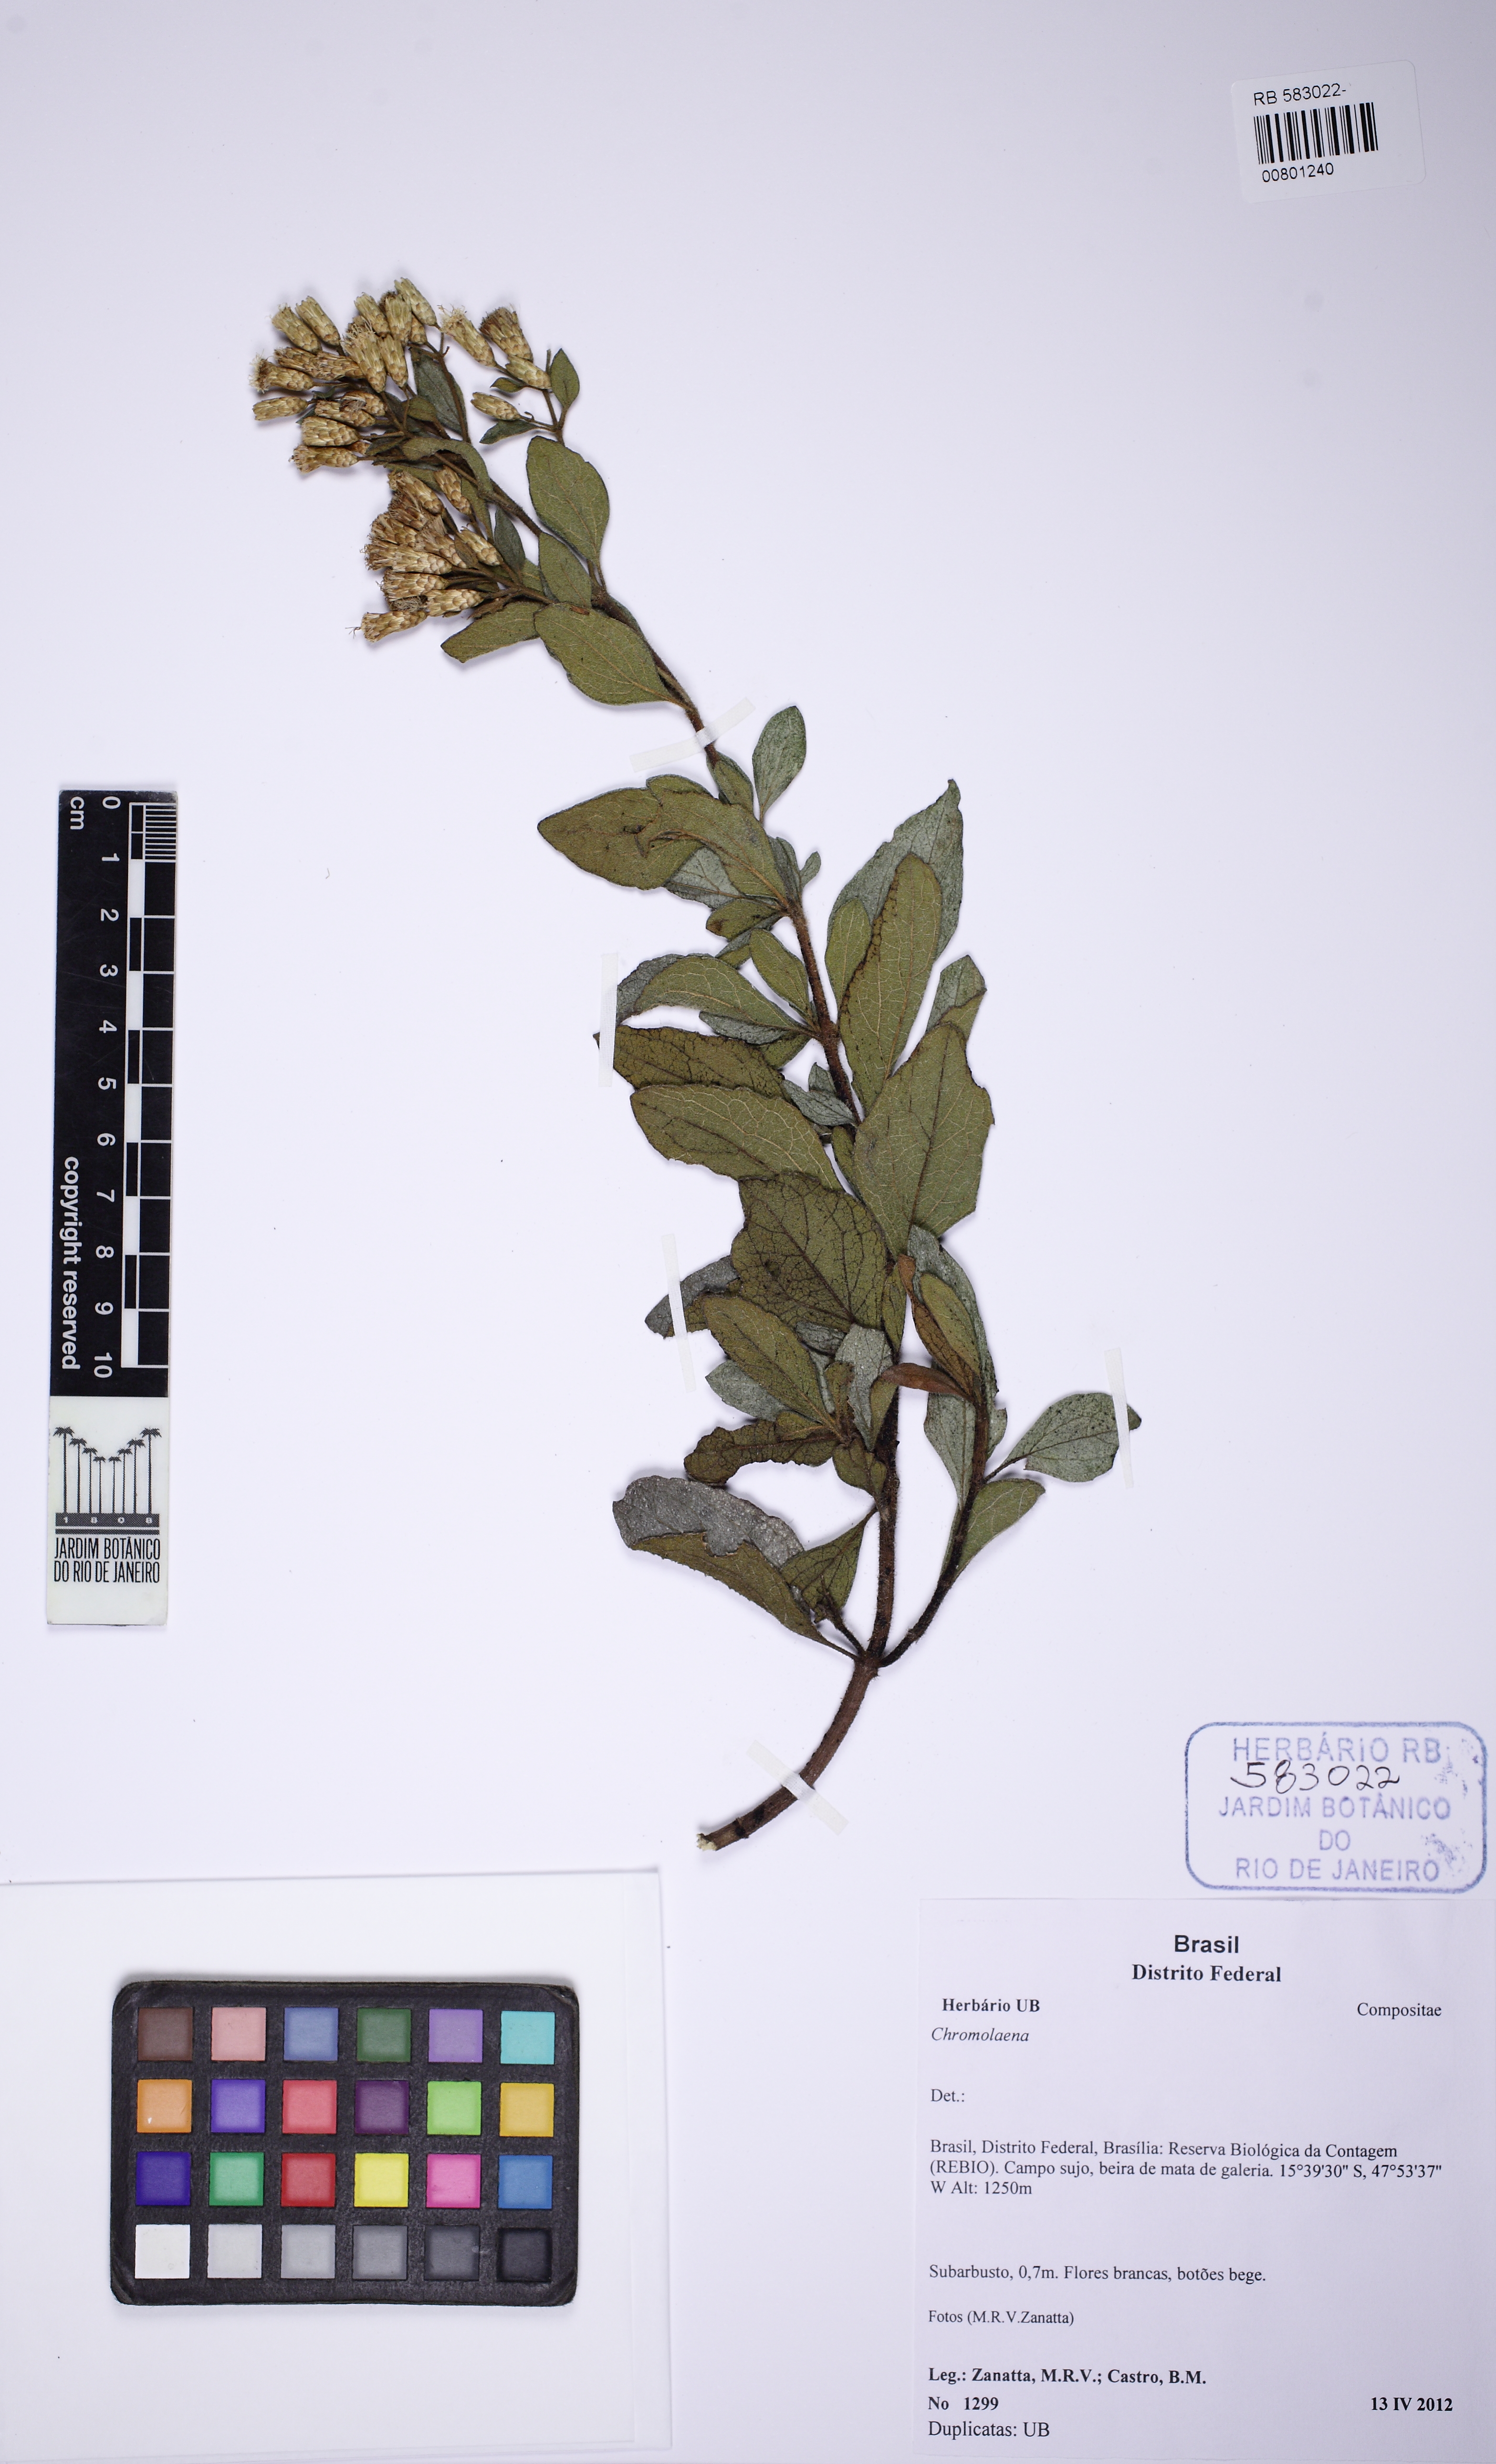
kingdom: Plantae
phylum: Tracheophyta
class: Magnoliopsida
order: Asterales
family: Asteraceae
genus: Chromolaena
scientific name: Chromolaena
